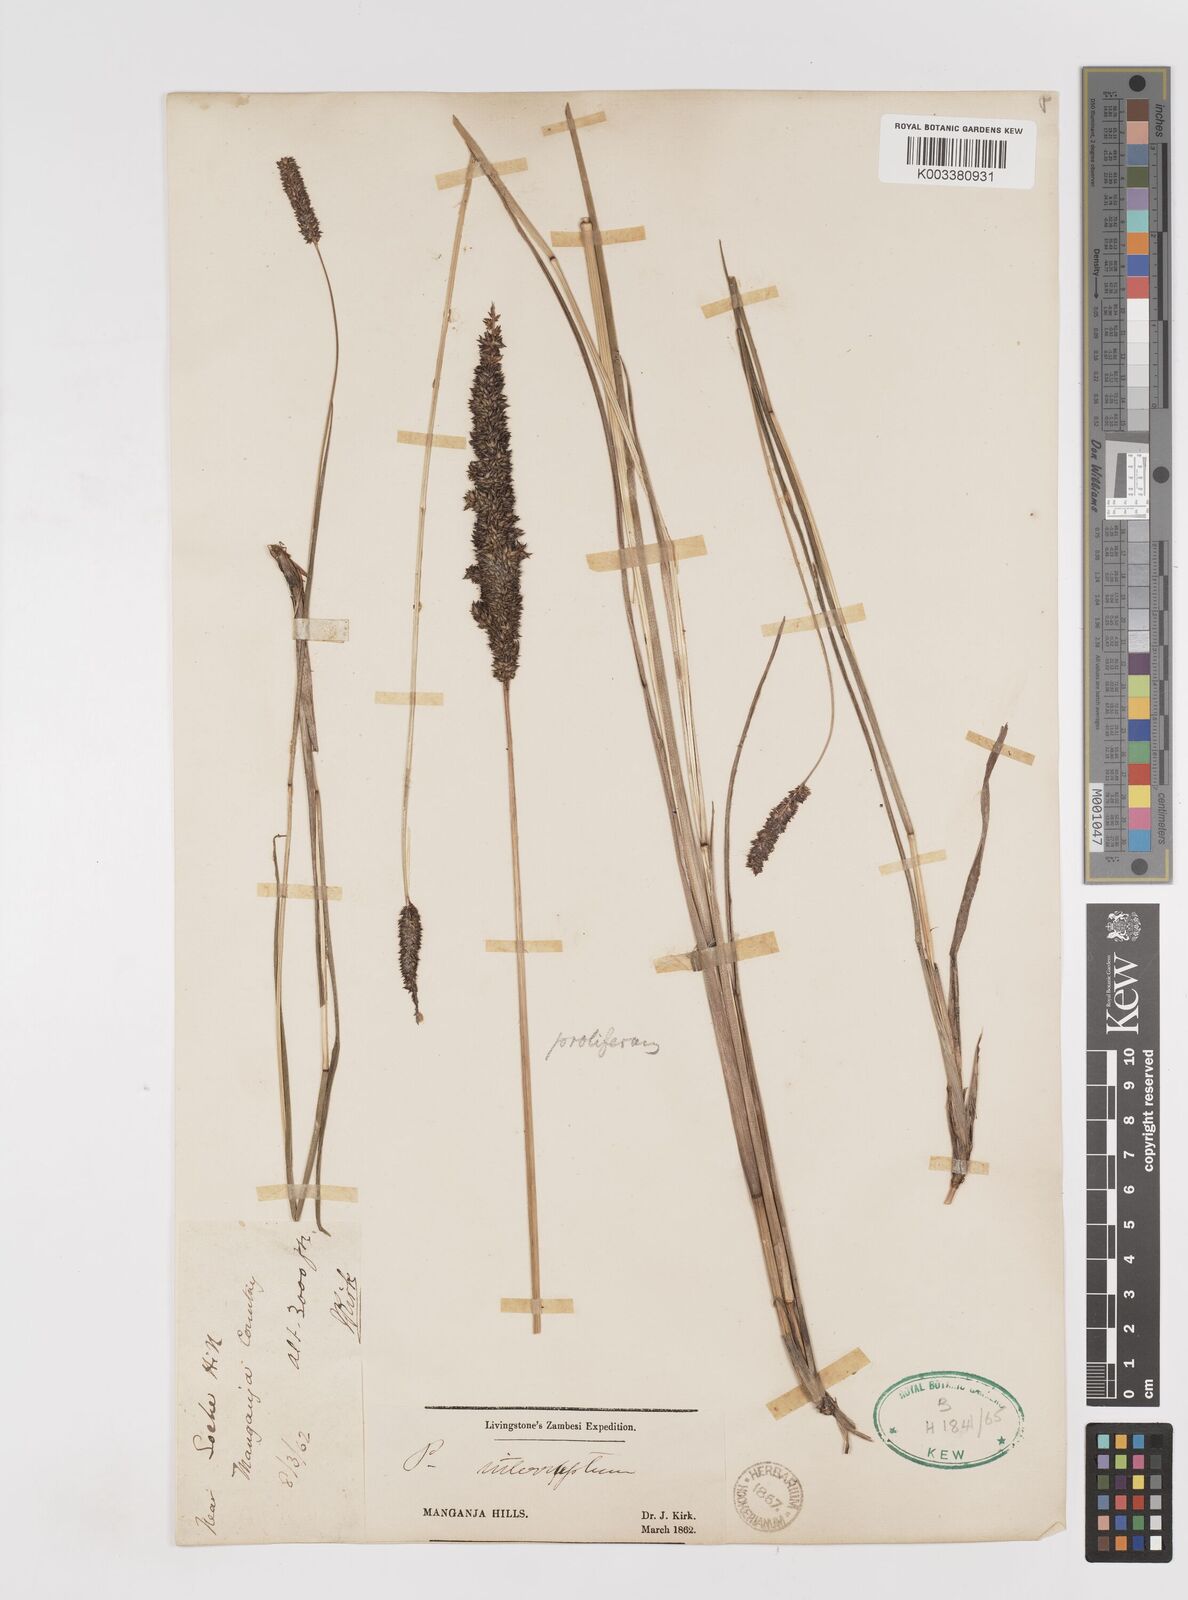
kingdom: Plantae
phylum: Tracheophyta
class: Liliopsida
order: Poales
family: Poaceae
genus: Sacciolepis
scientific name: Sacciolepis typhura
